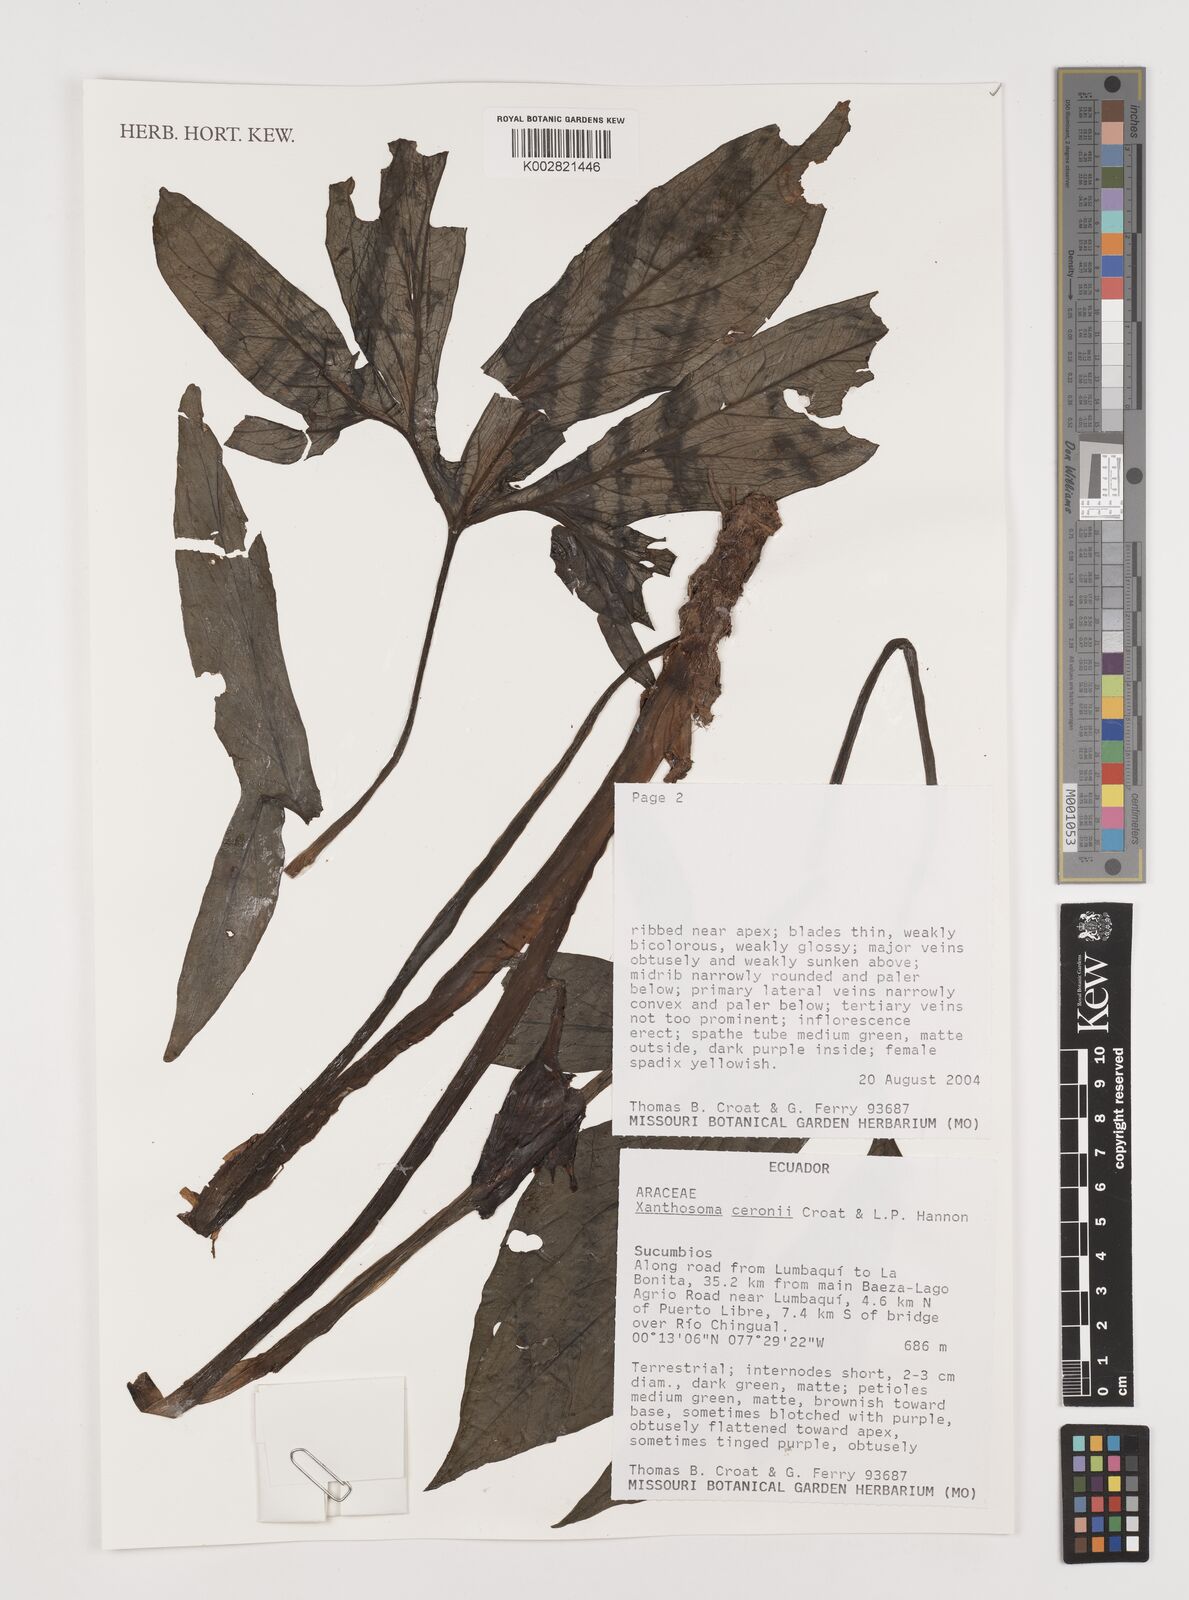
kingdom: Plantae
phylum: Tracheophyta
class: Liliopsida
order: Alismatales
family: Araceae
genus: Xanthosoma
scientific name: Xanthosoma ceronii
